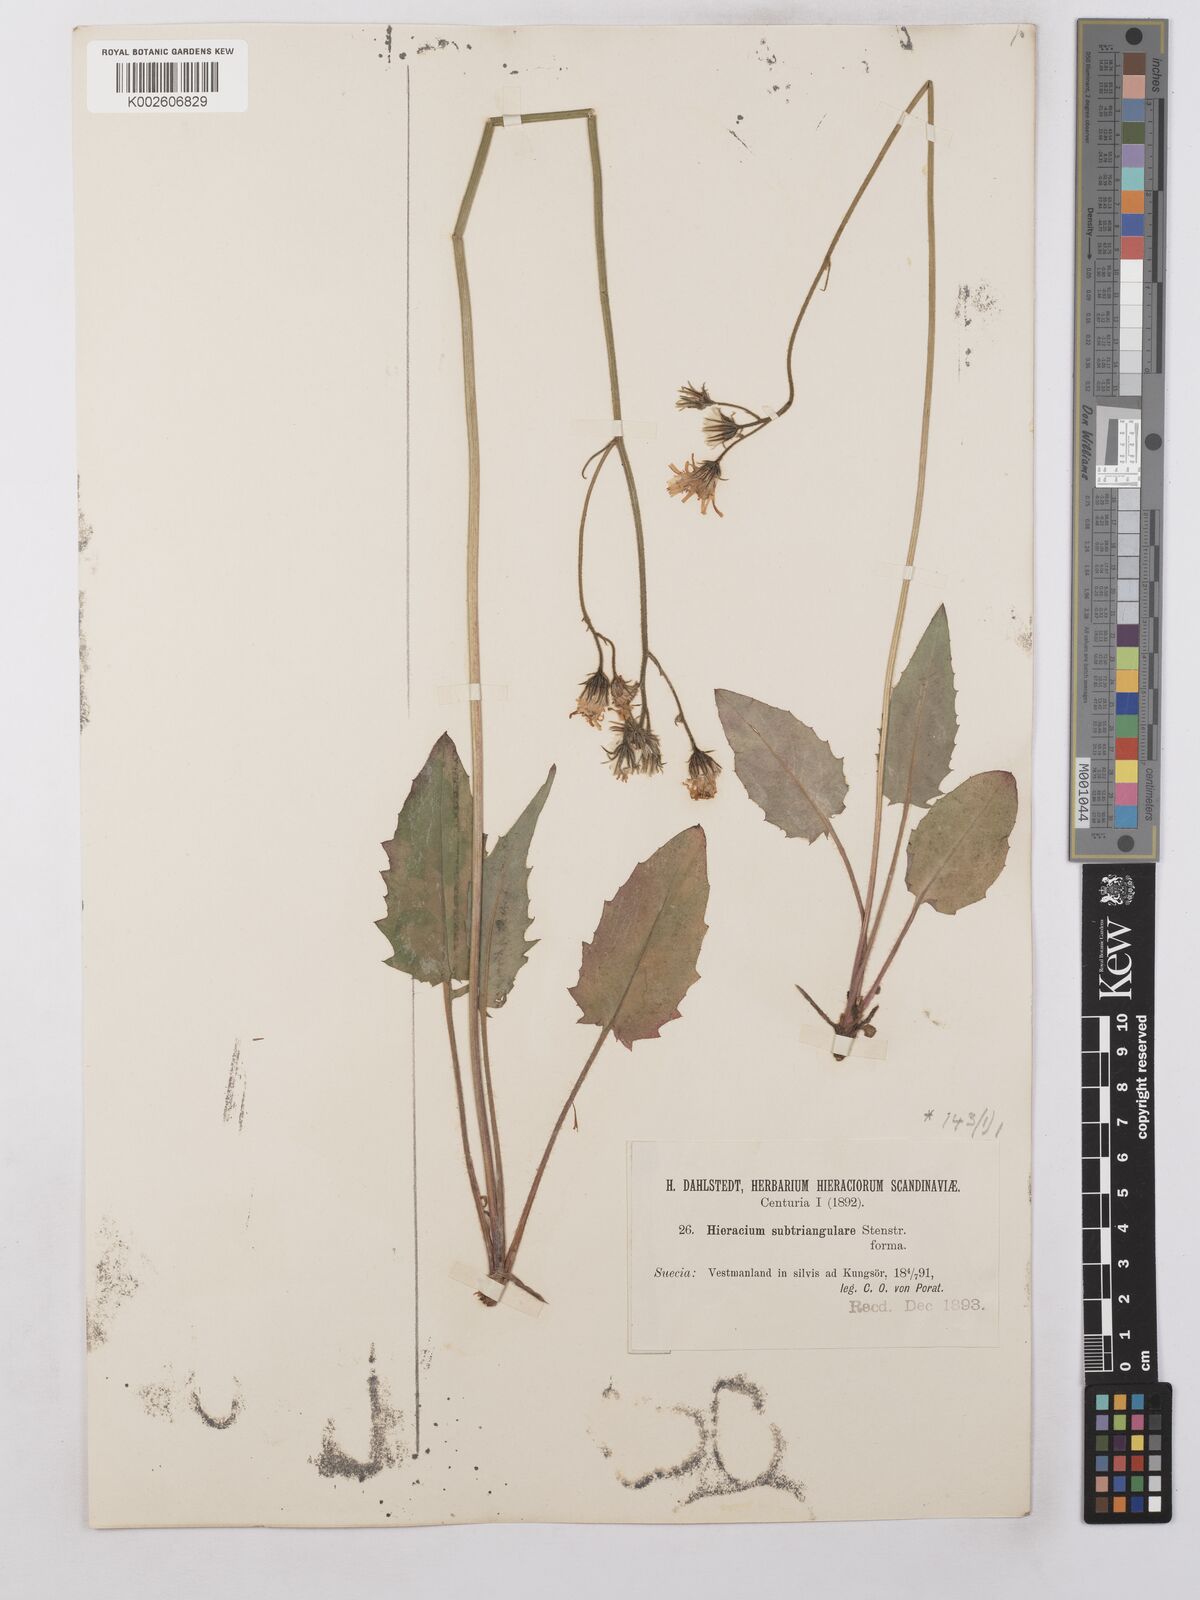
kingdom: Plantae
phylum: Tracheophyta
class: Magnoliopsida
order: Asterales
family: Asteraceae
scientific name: Asteraceae
